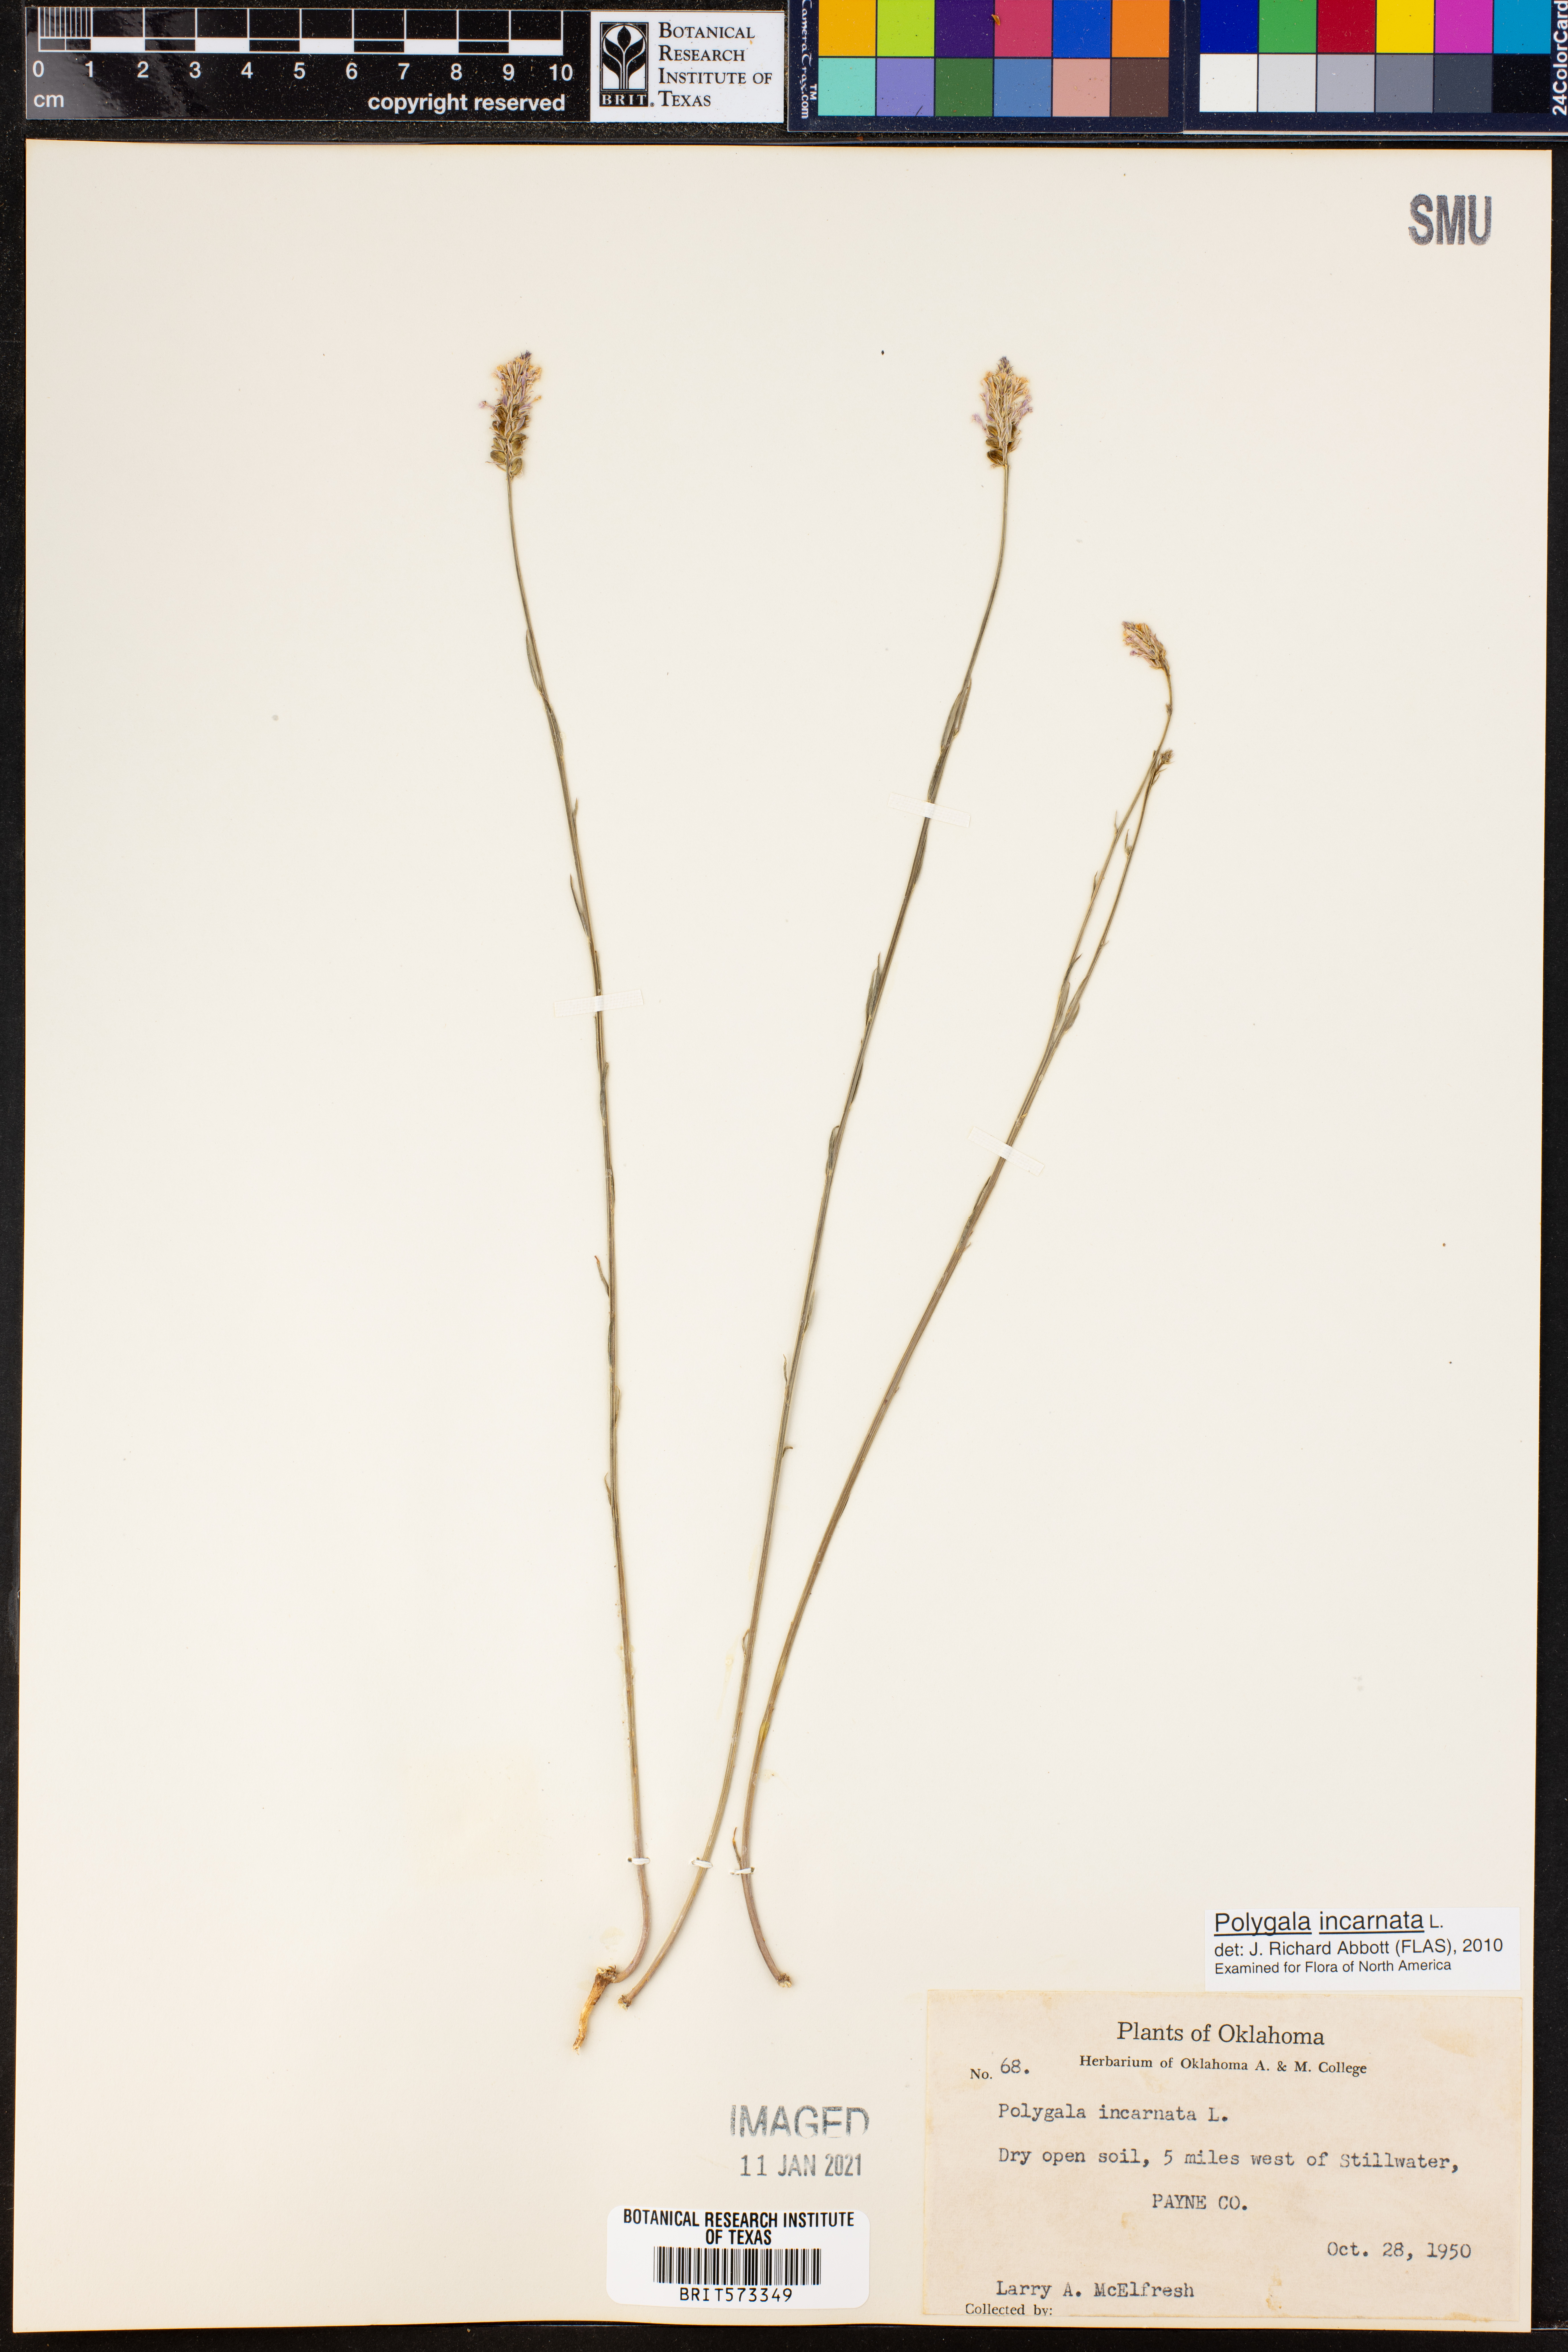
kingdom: Plantae
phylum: Tracheophyta
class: Magnoliopsida
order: Fabales
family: Polygalaceae
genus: Polygala
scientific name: Polygala incarnata
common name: Pink milkwort
